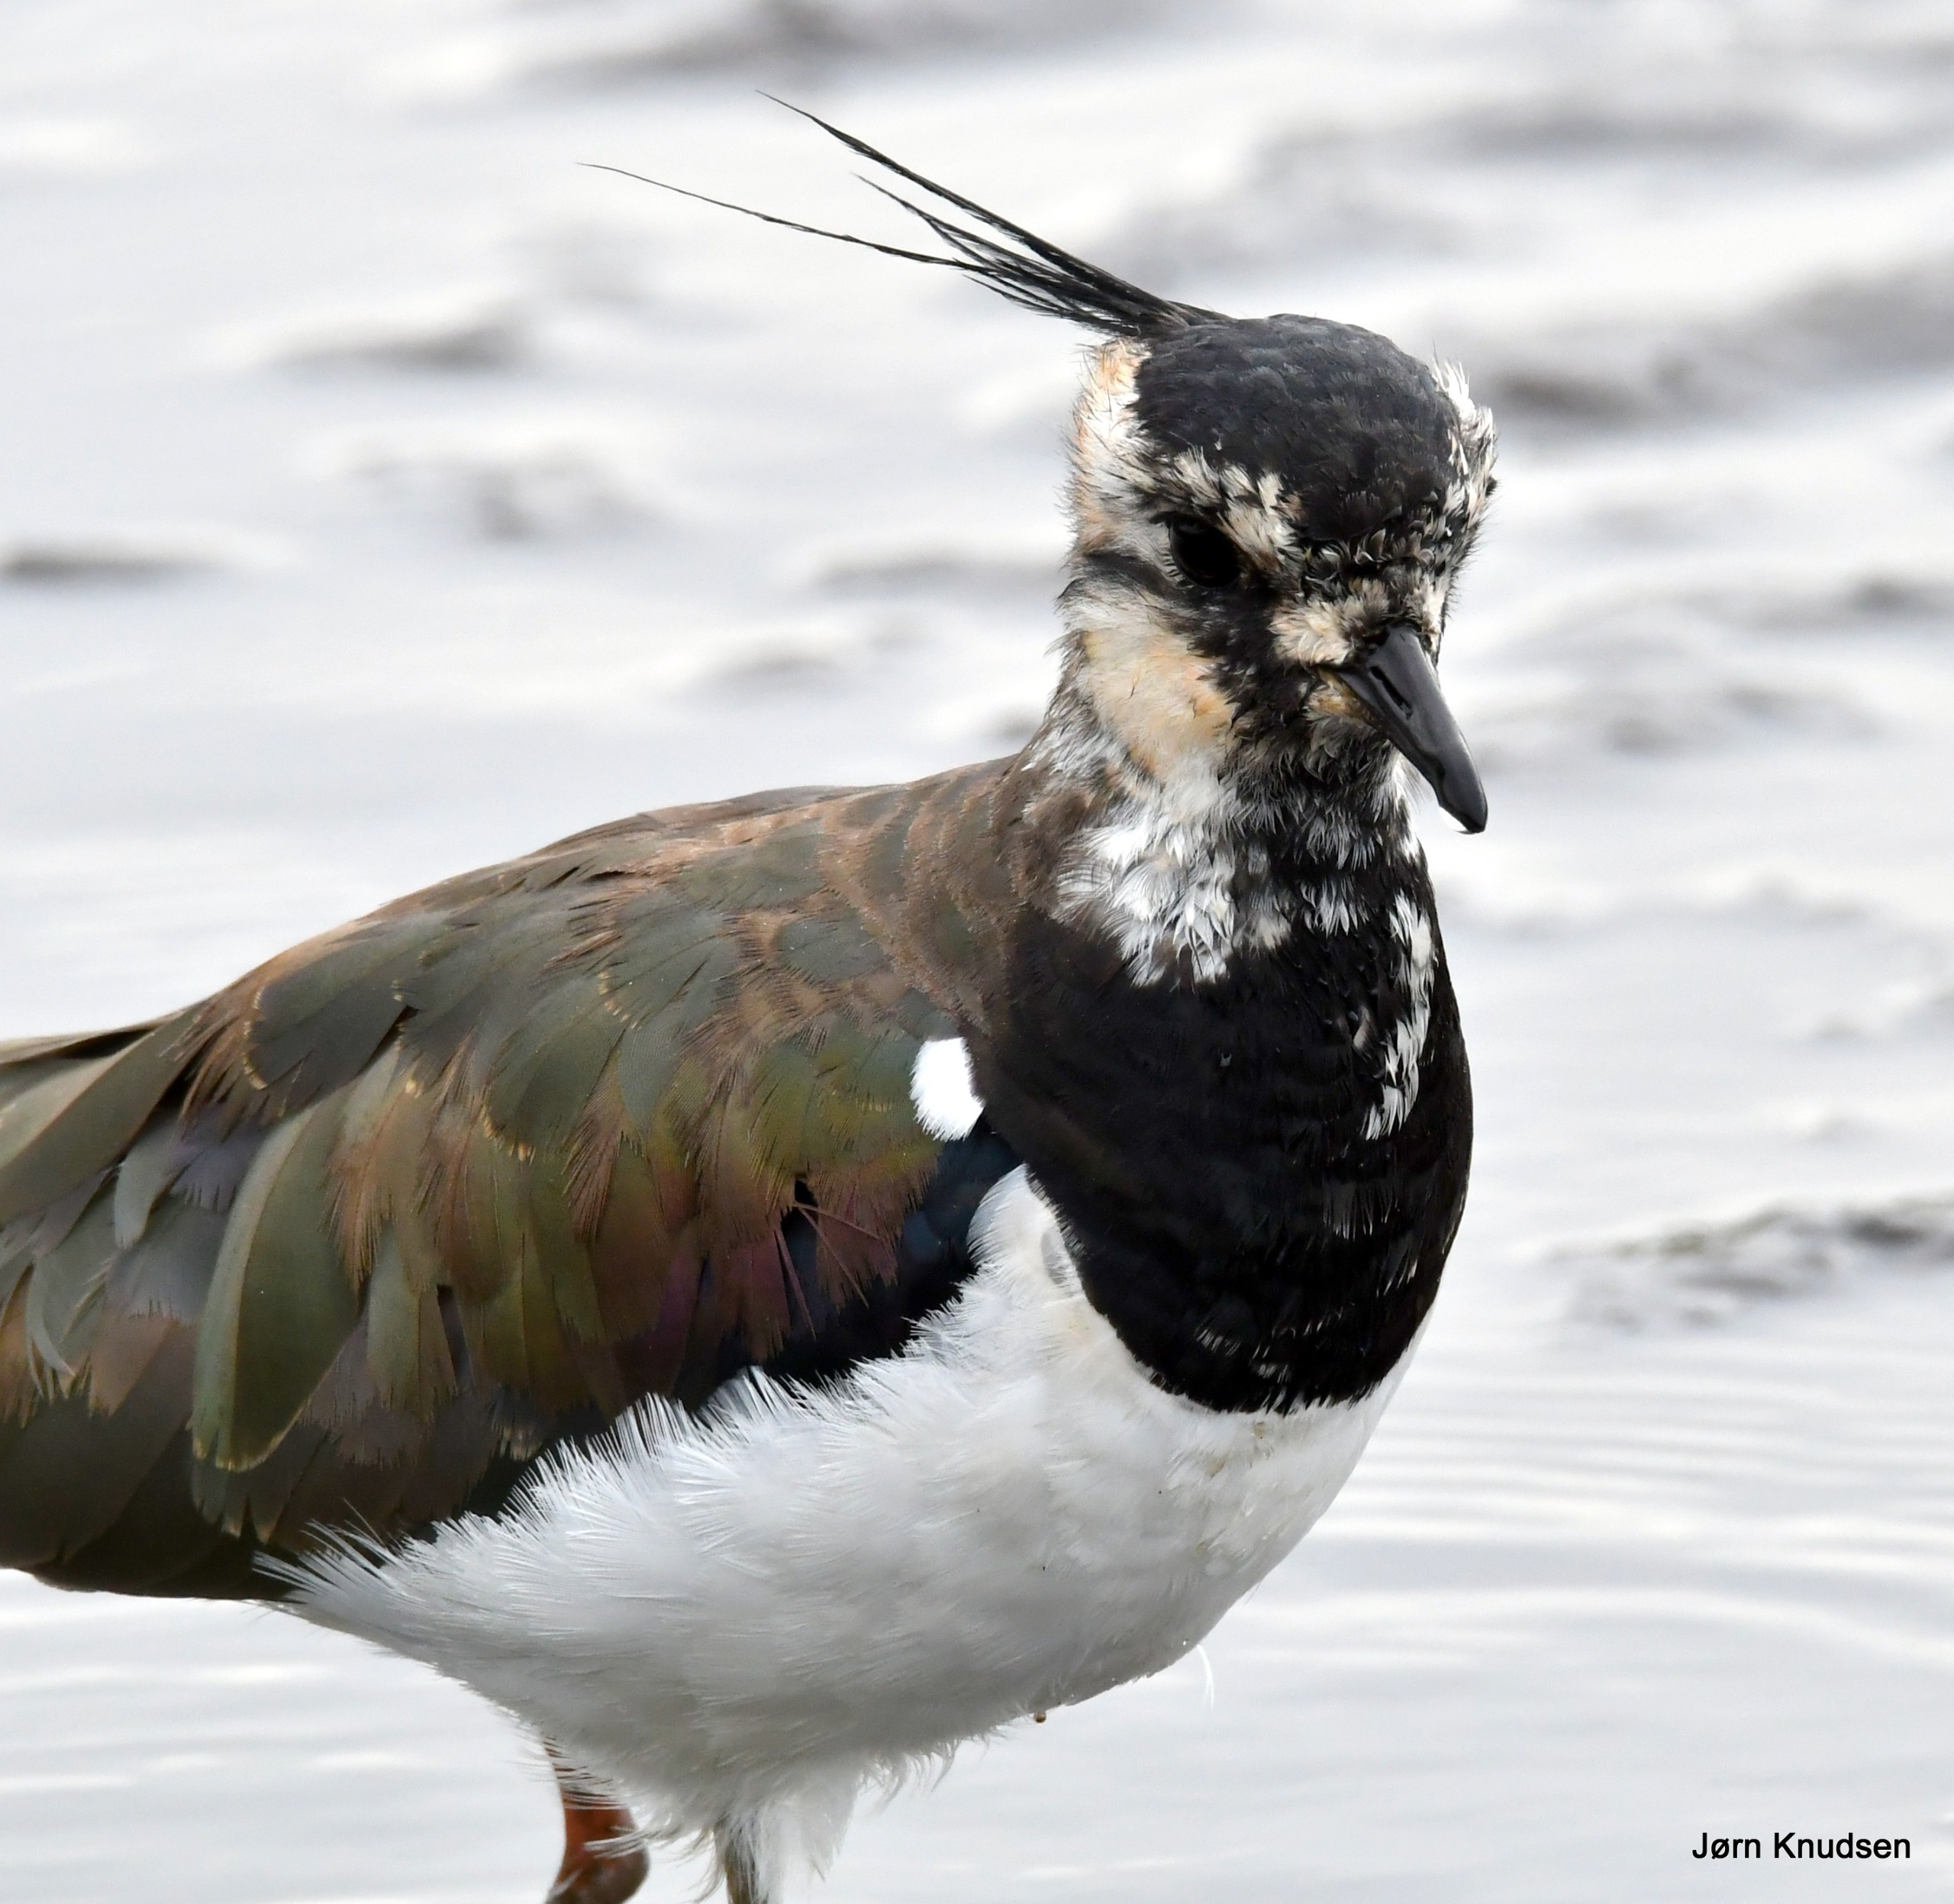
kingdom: Animalia
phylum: Chordata
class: Aves
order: Charadriiformes
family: Charadriidae
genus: Vanellus
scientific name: Vanellus vanellus
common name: Vibe
